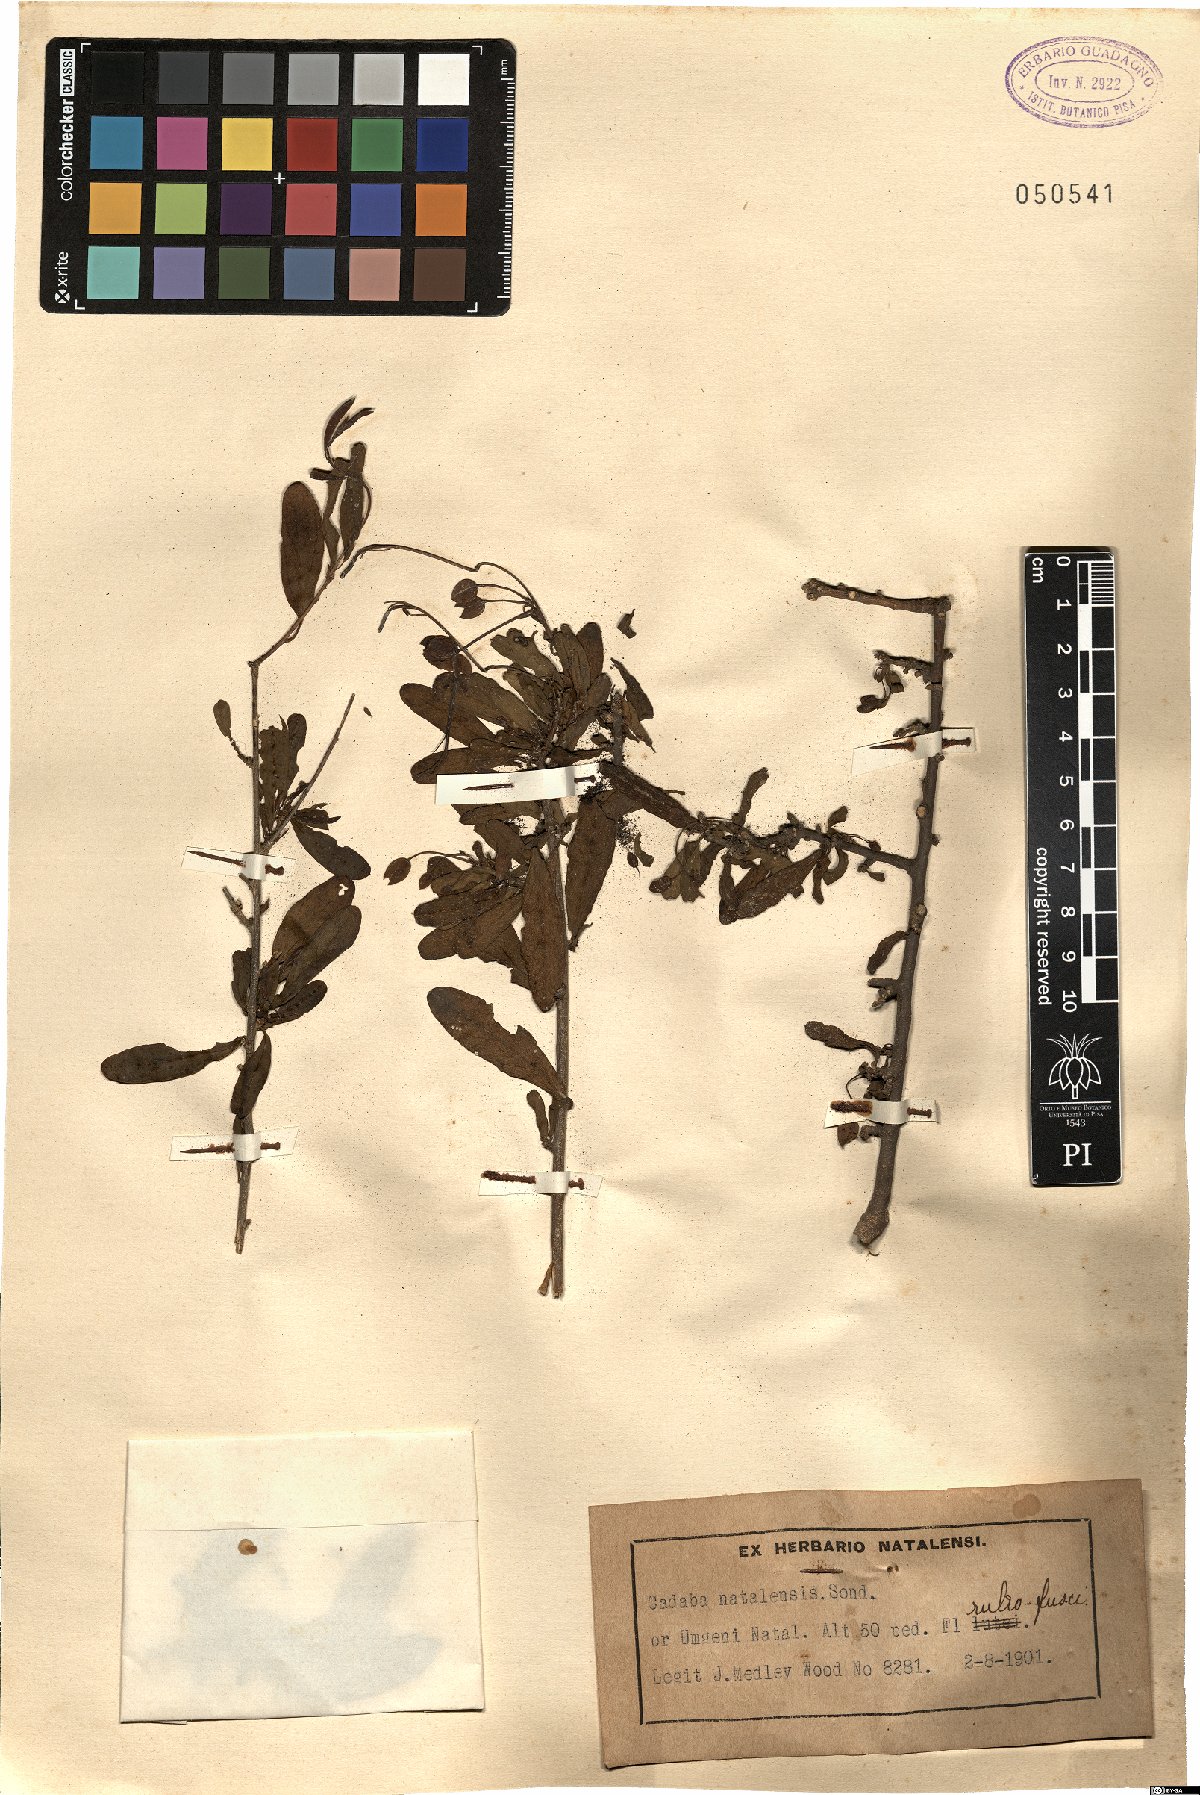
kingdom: Plantae
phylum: Tracheophyta
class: Magnoliopsida
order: Brassicales
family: Capparaceae
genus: Cadaba
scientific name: Cadaba natalensis
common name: Natal worm bush
